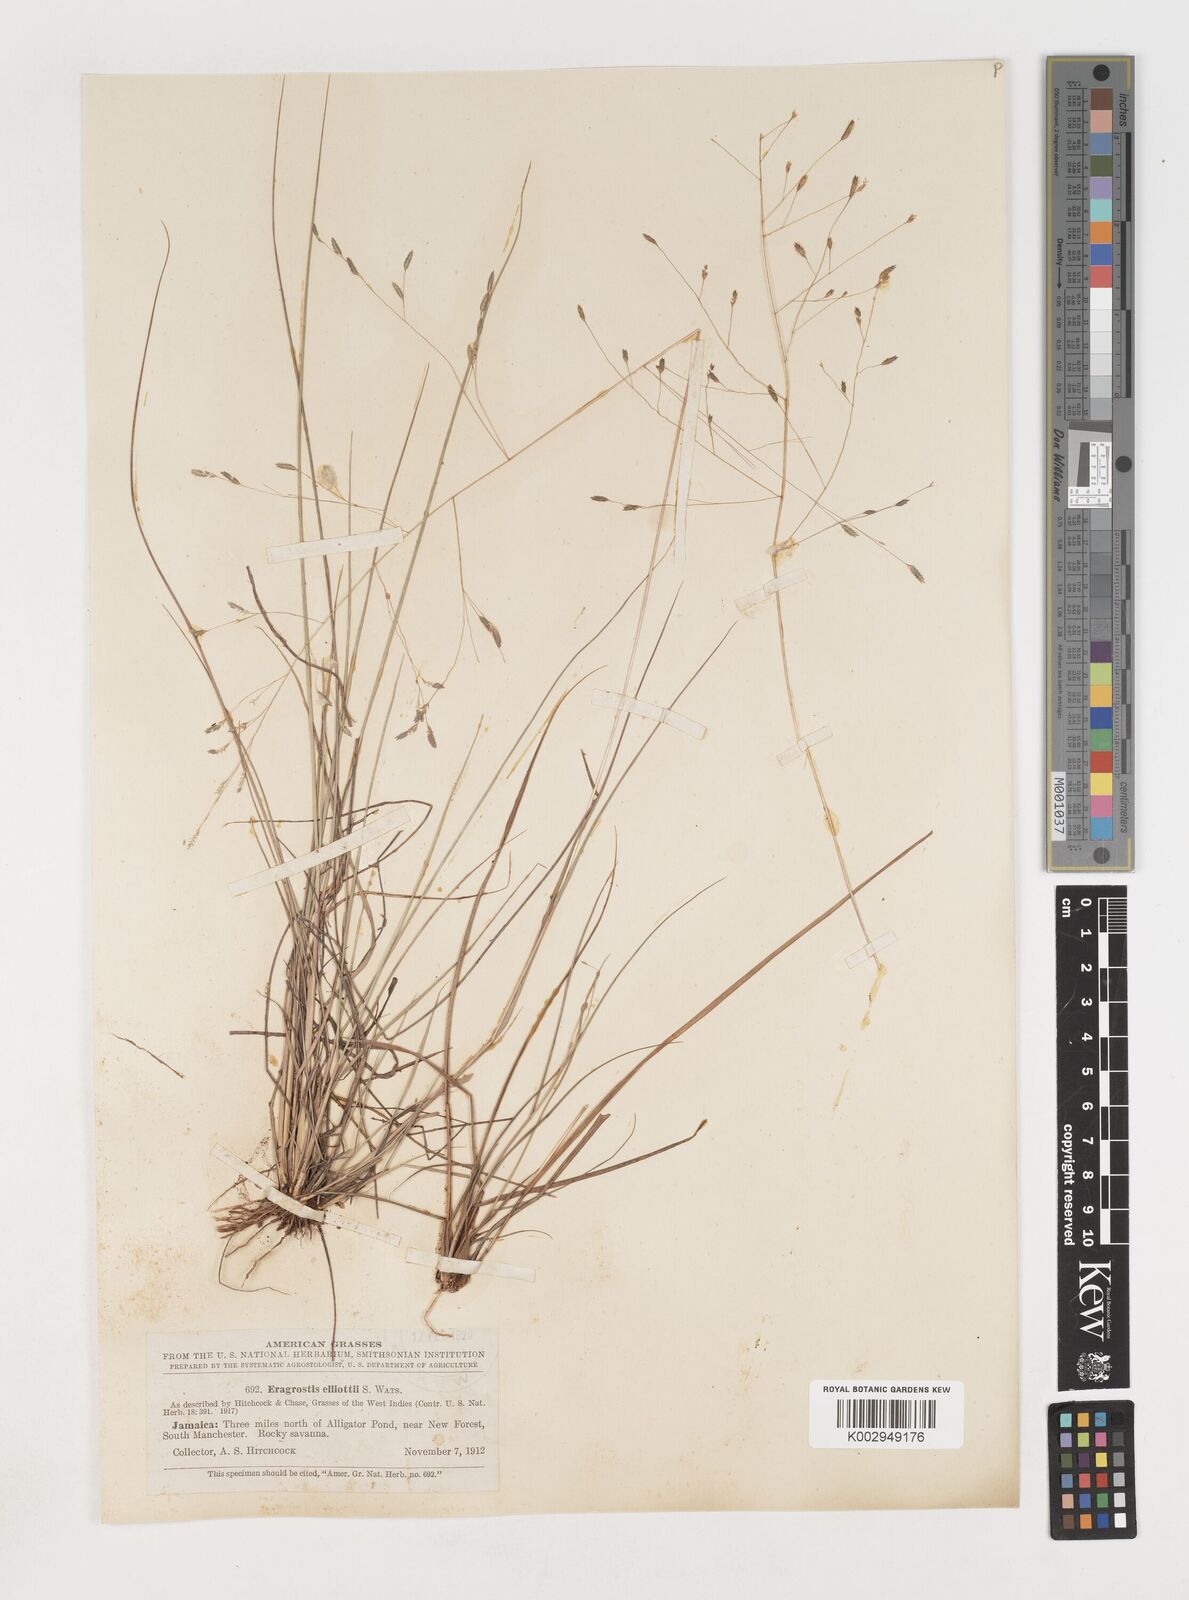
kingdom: Plantae
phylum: Tracheophyta
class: Liliopsida
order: Poales
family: Poaceae
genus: Eragrostis
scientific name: Eragrostis elliottii
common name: Elliott's love grass
